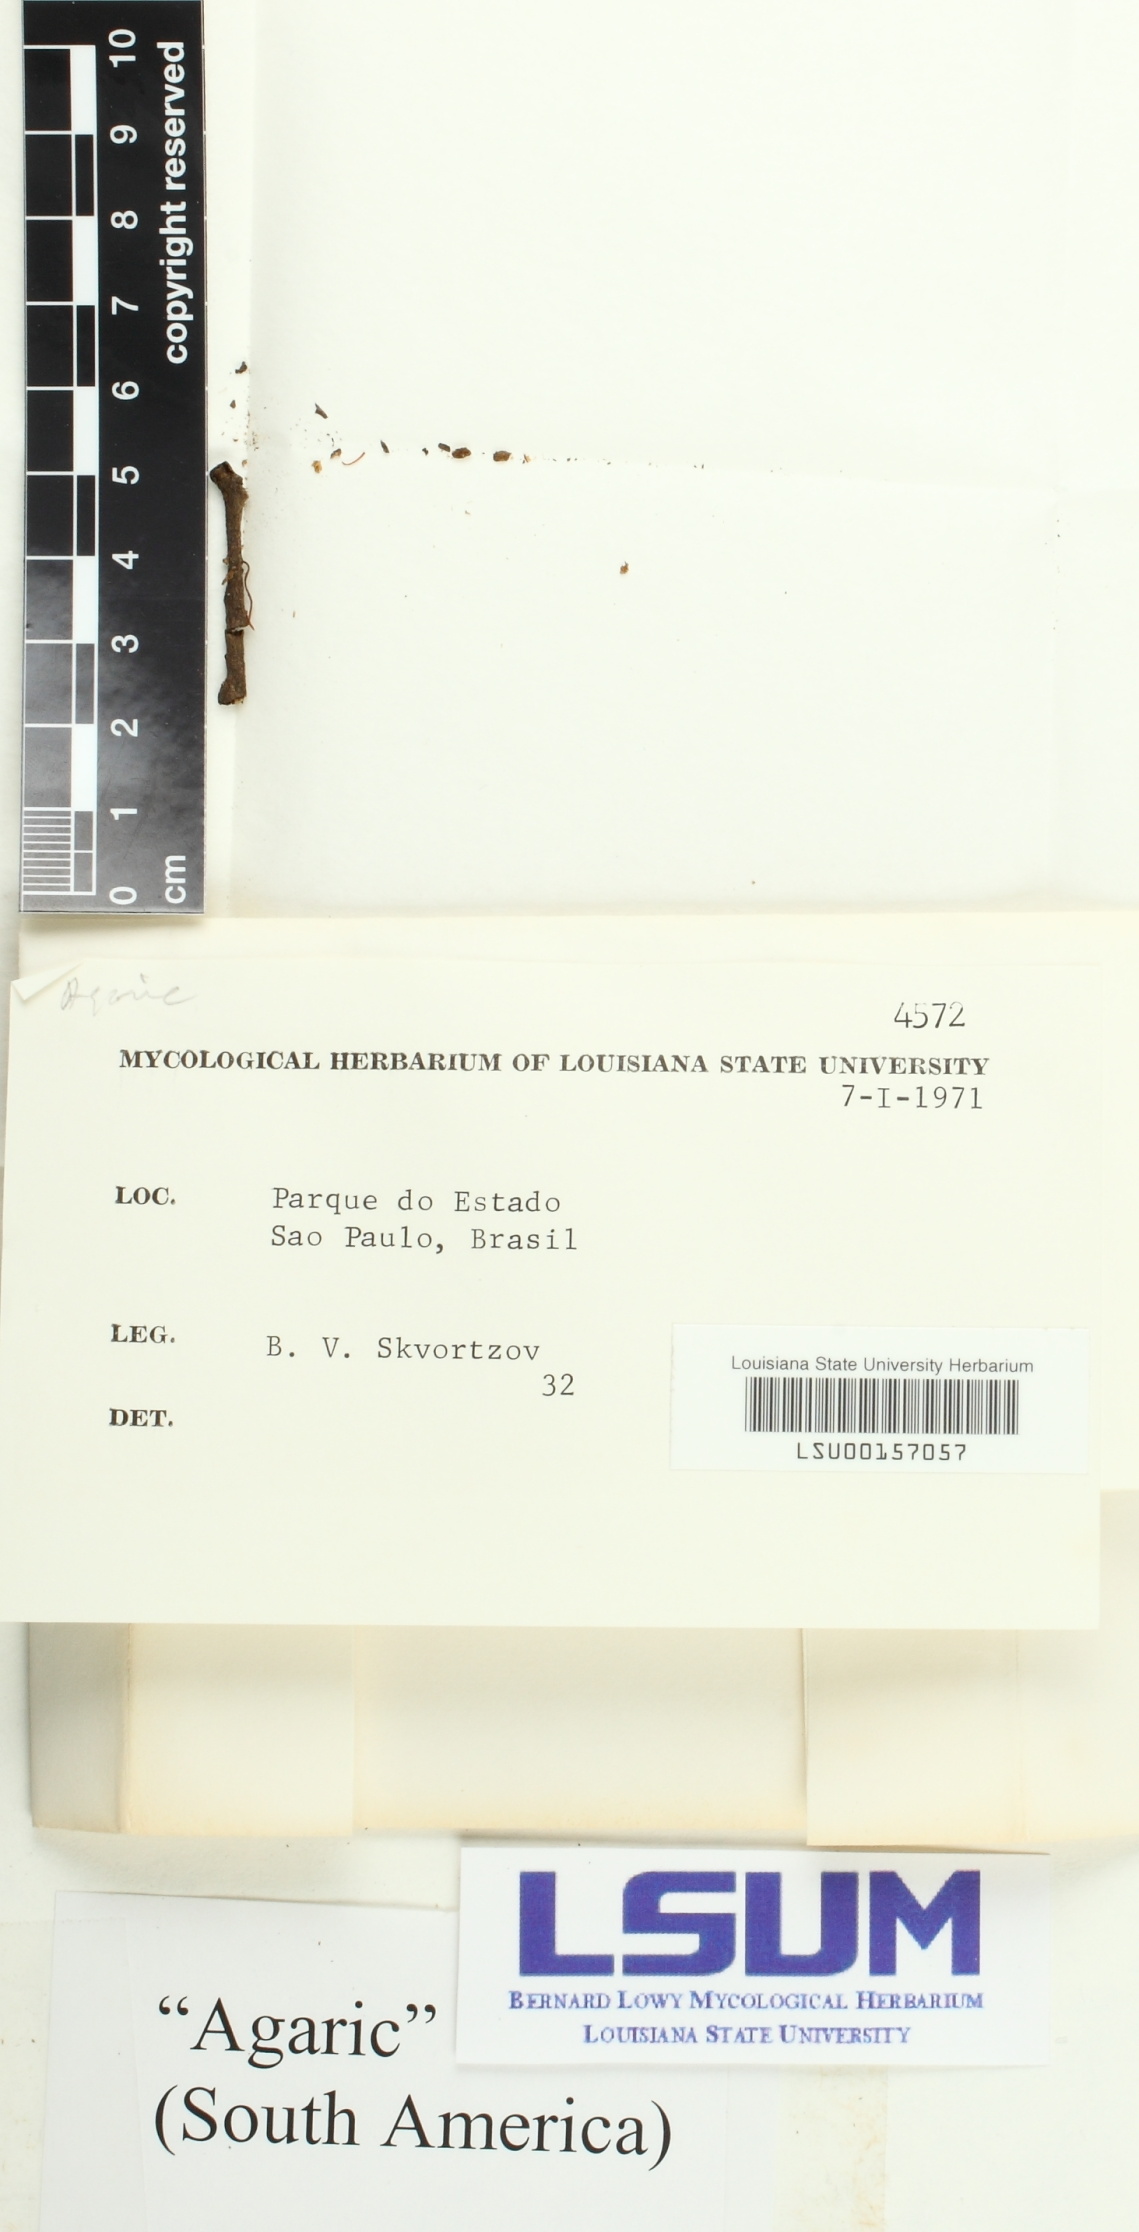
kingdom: Fungi
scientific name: Fungi
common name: Fungi
